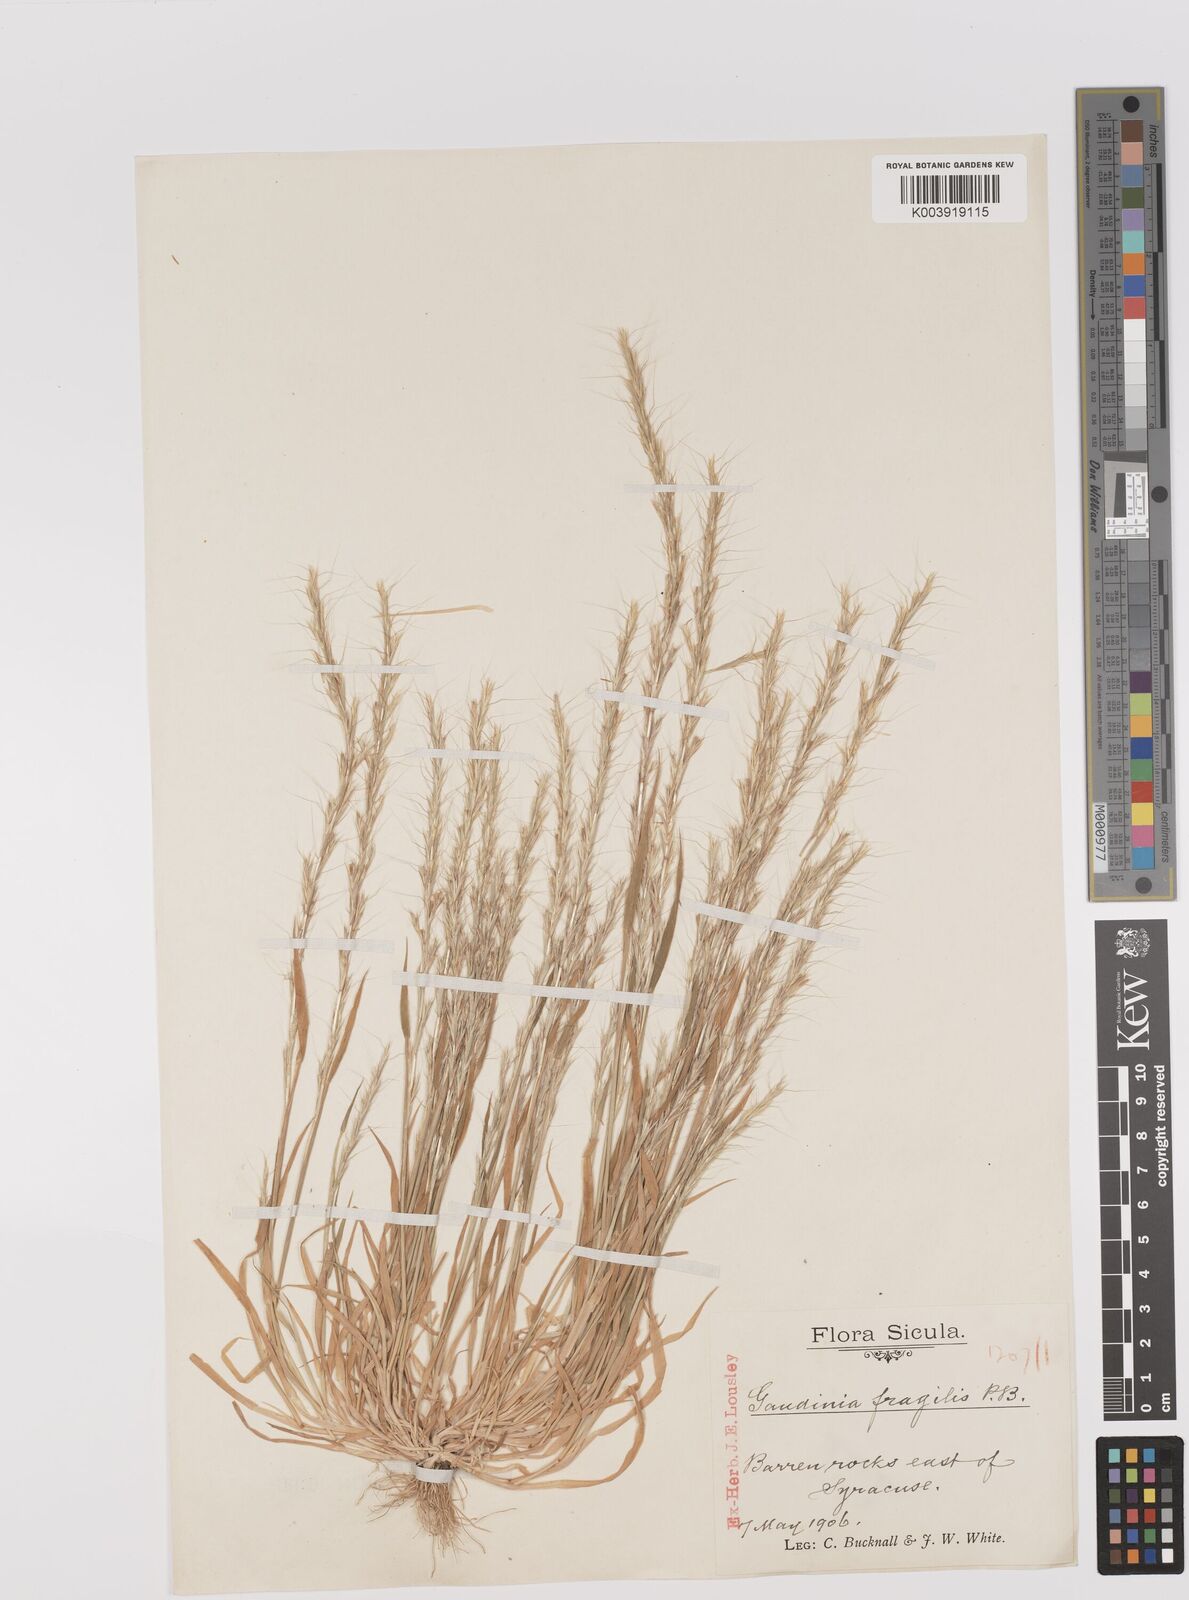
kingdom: Plantae
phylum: Tracheophyta
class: Liliopsida
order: Poales
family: Poaceae
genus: Gaudinia
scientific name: Gaudinia fragilis
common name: French oat-grass
